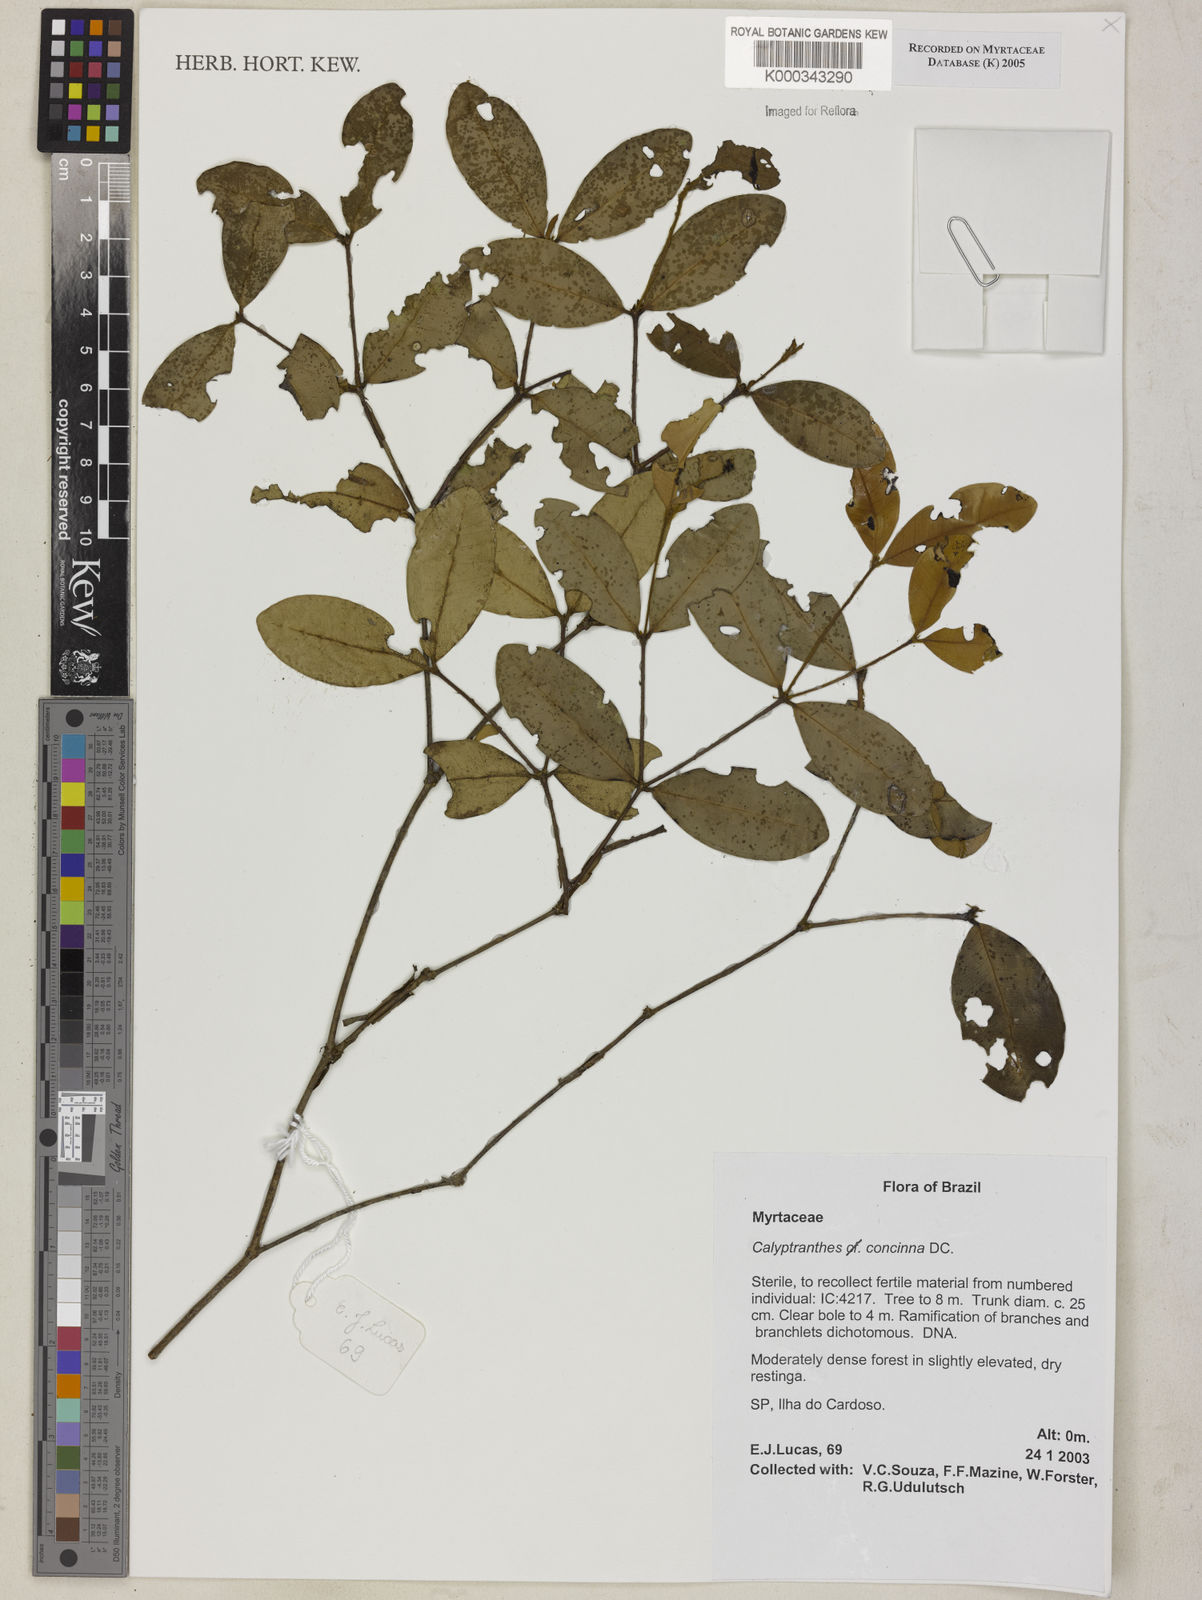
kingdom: Plantae
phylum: Tracheophyta
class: Magnoliopsida
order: Myrtales
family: Myrtaceae
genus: Myrcia
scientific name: Myrcia cruciflora
